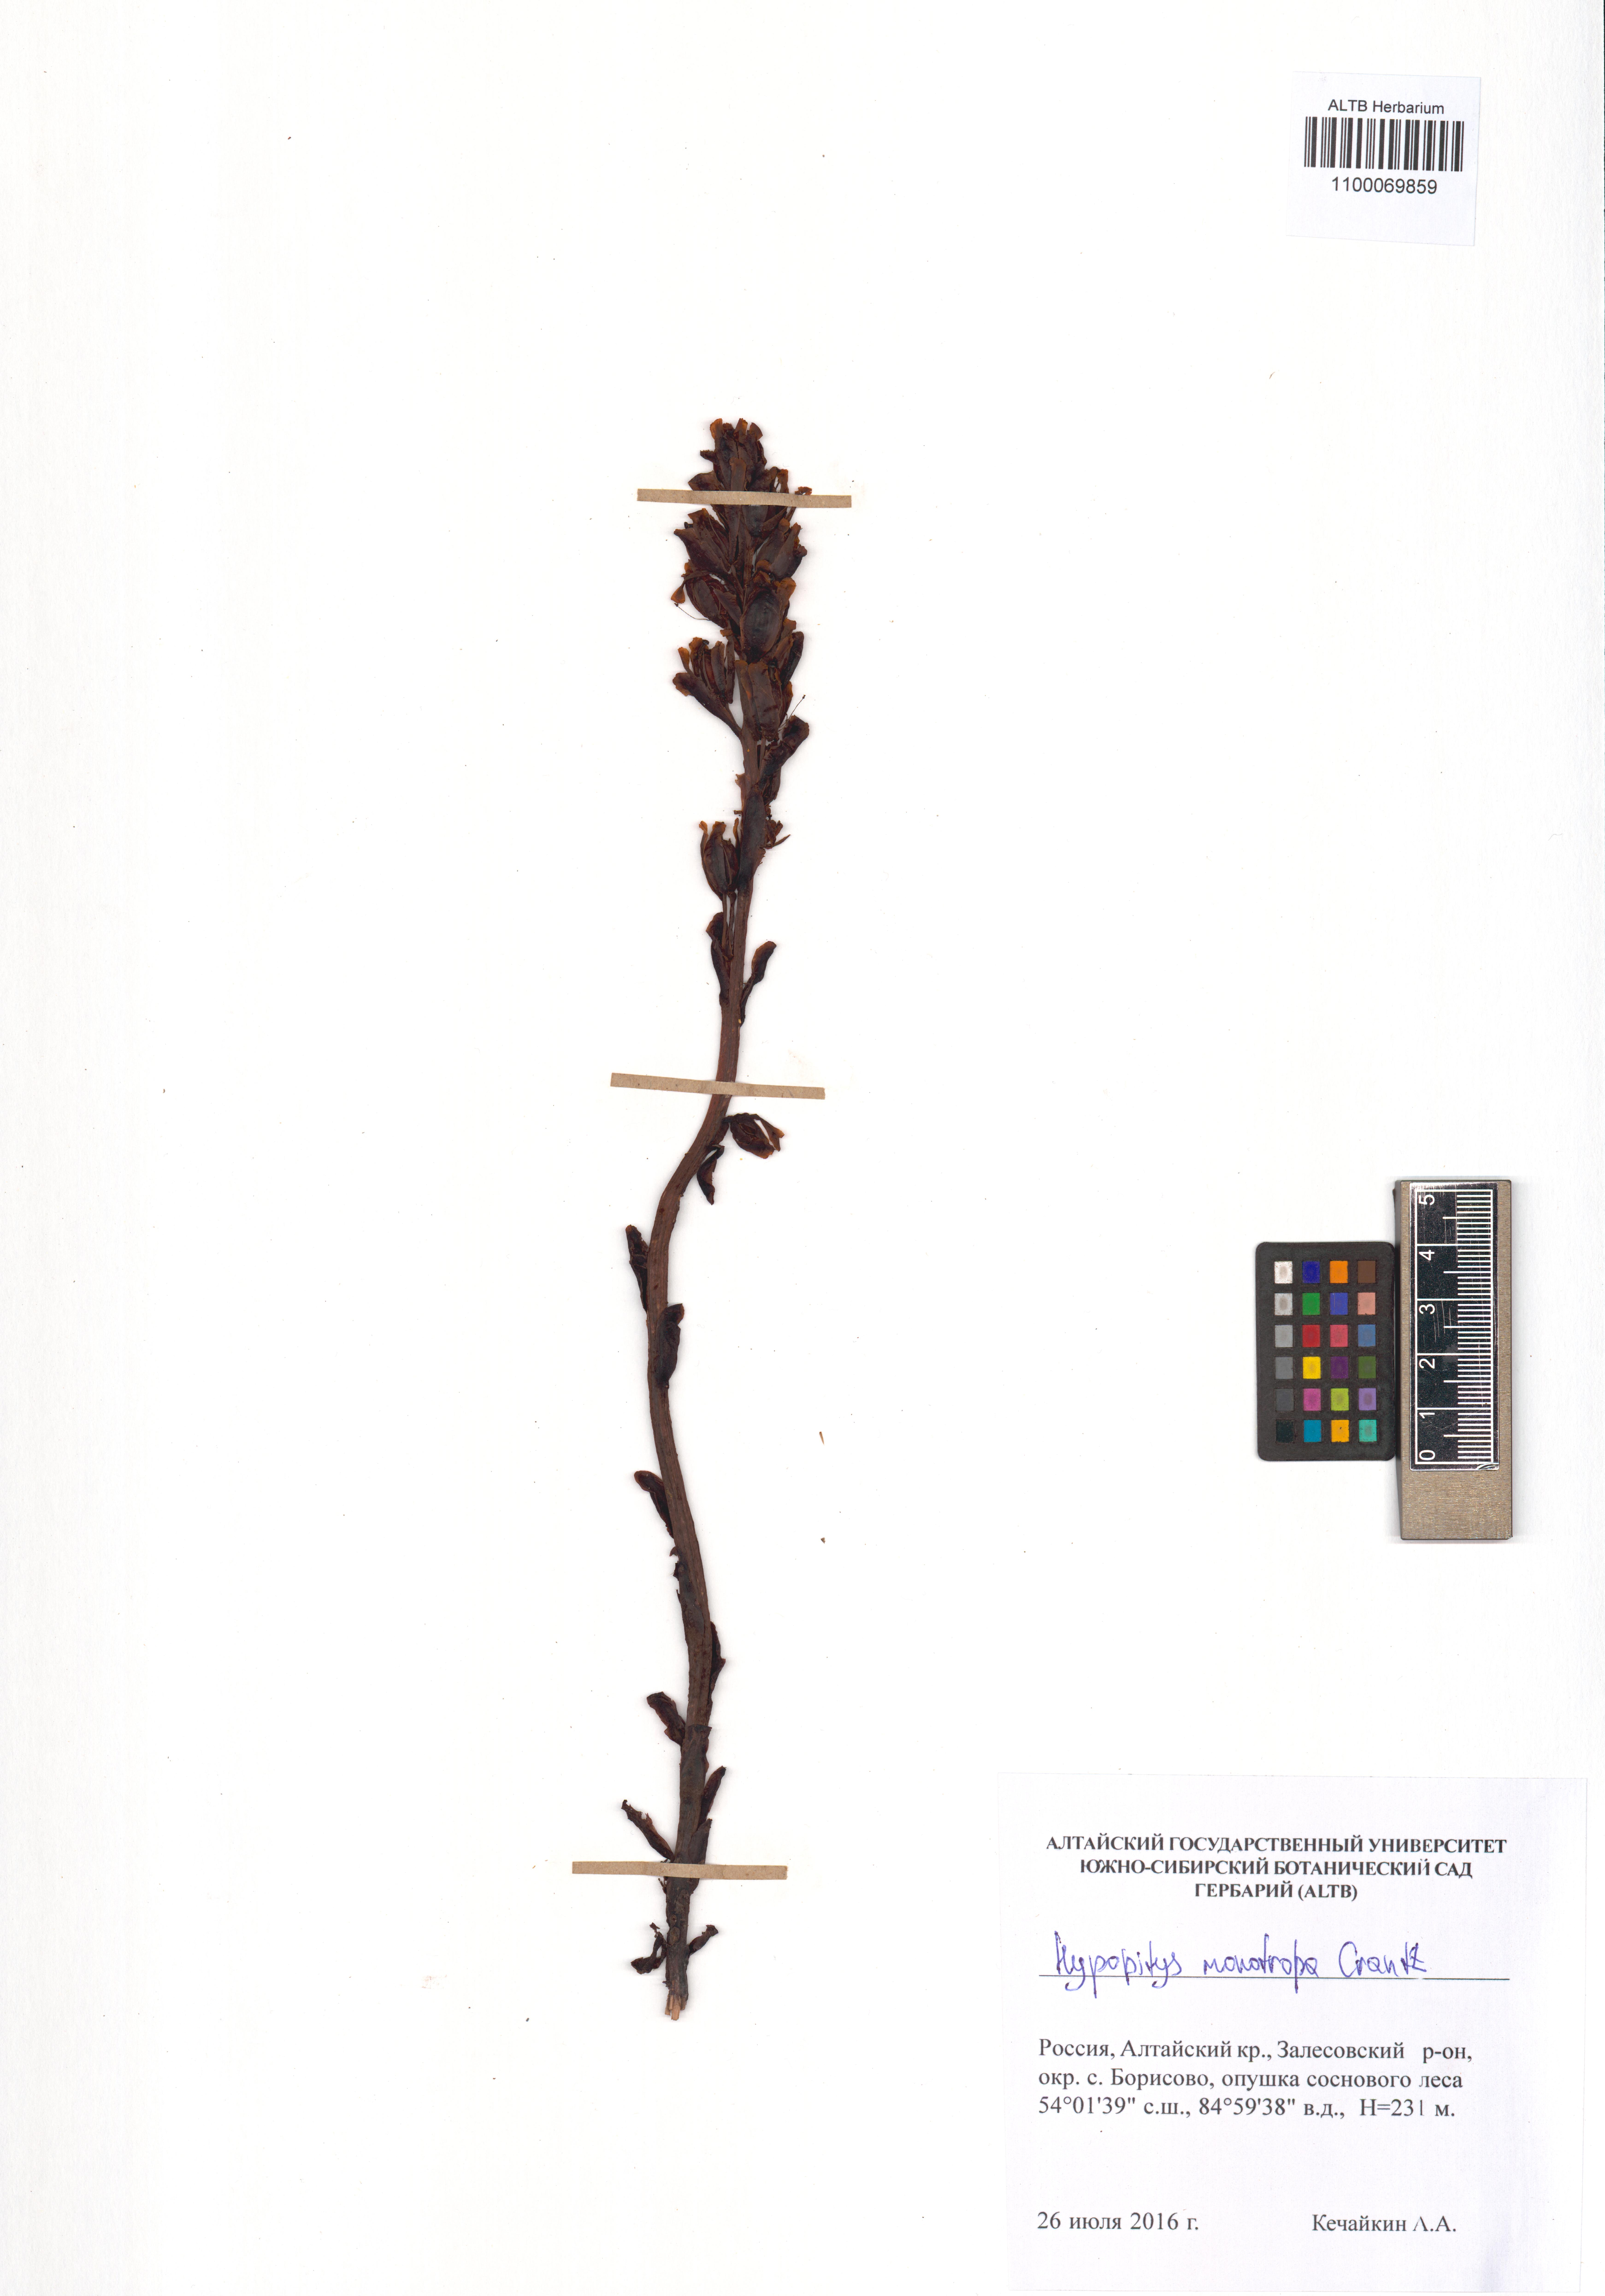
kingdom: Plantae
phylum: Tracheophyta
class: Magnoliopsida
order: Ericales
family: Ericaceae
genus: Hypopitys
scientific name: Hypopitys monotropa
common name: Yellow bird's-nest
